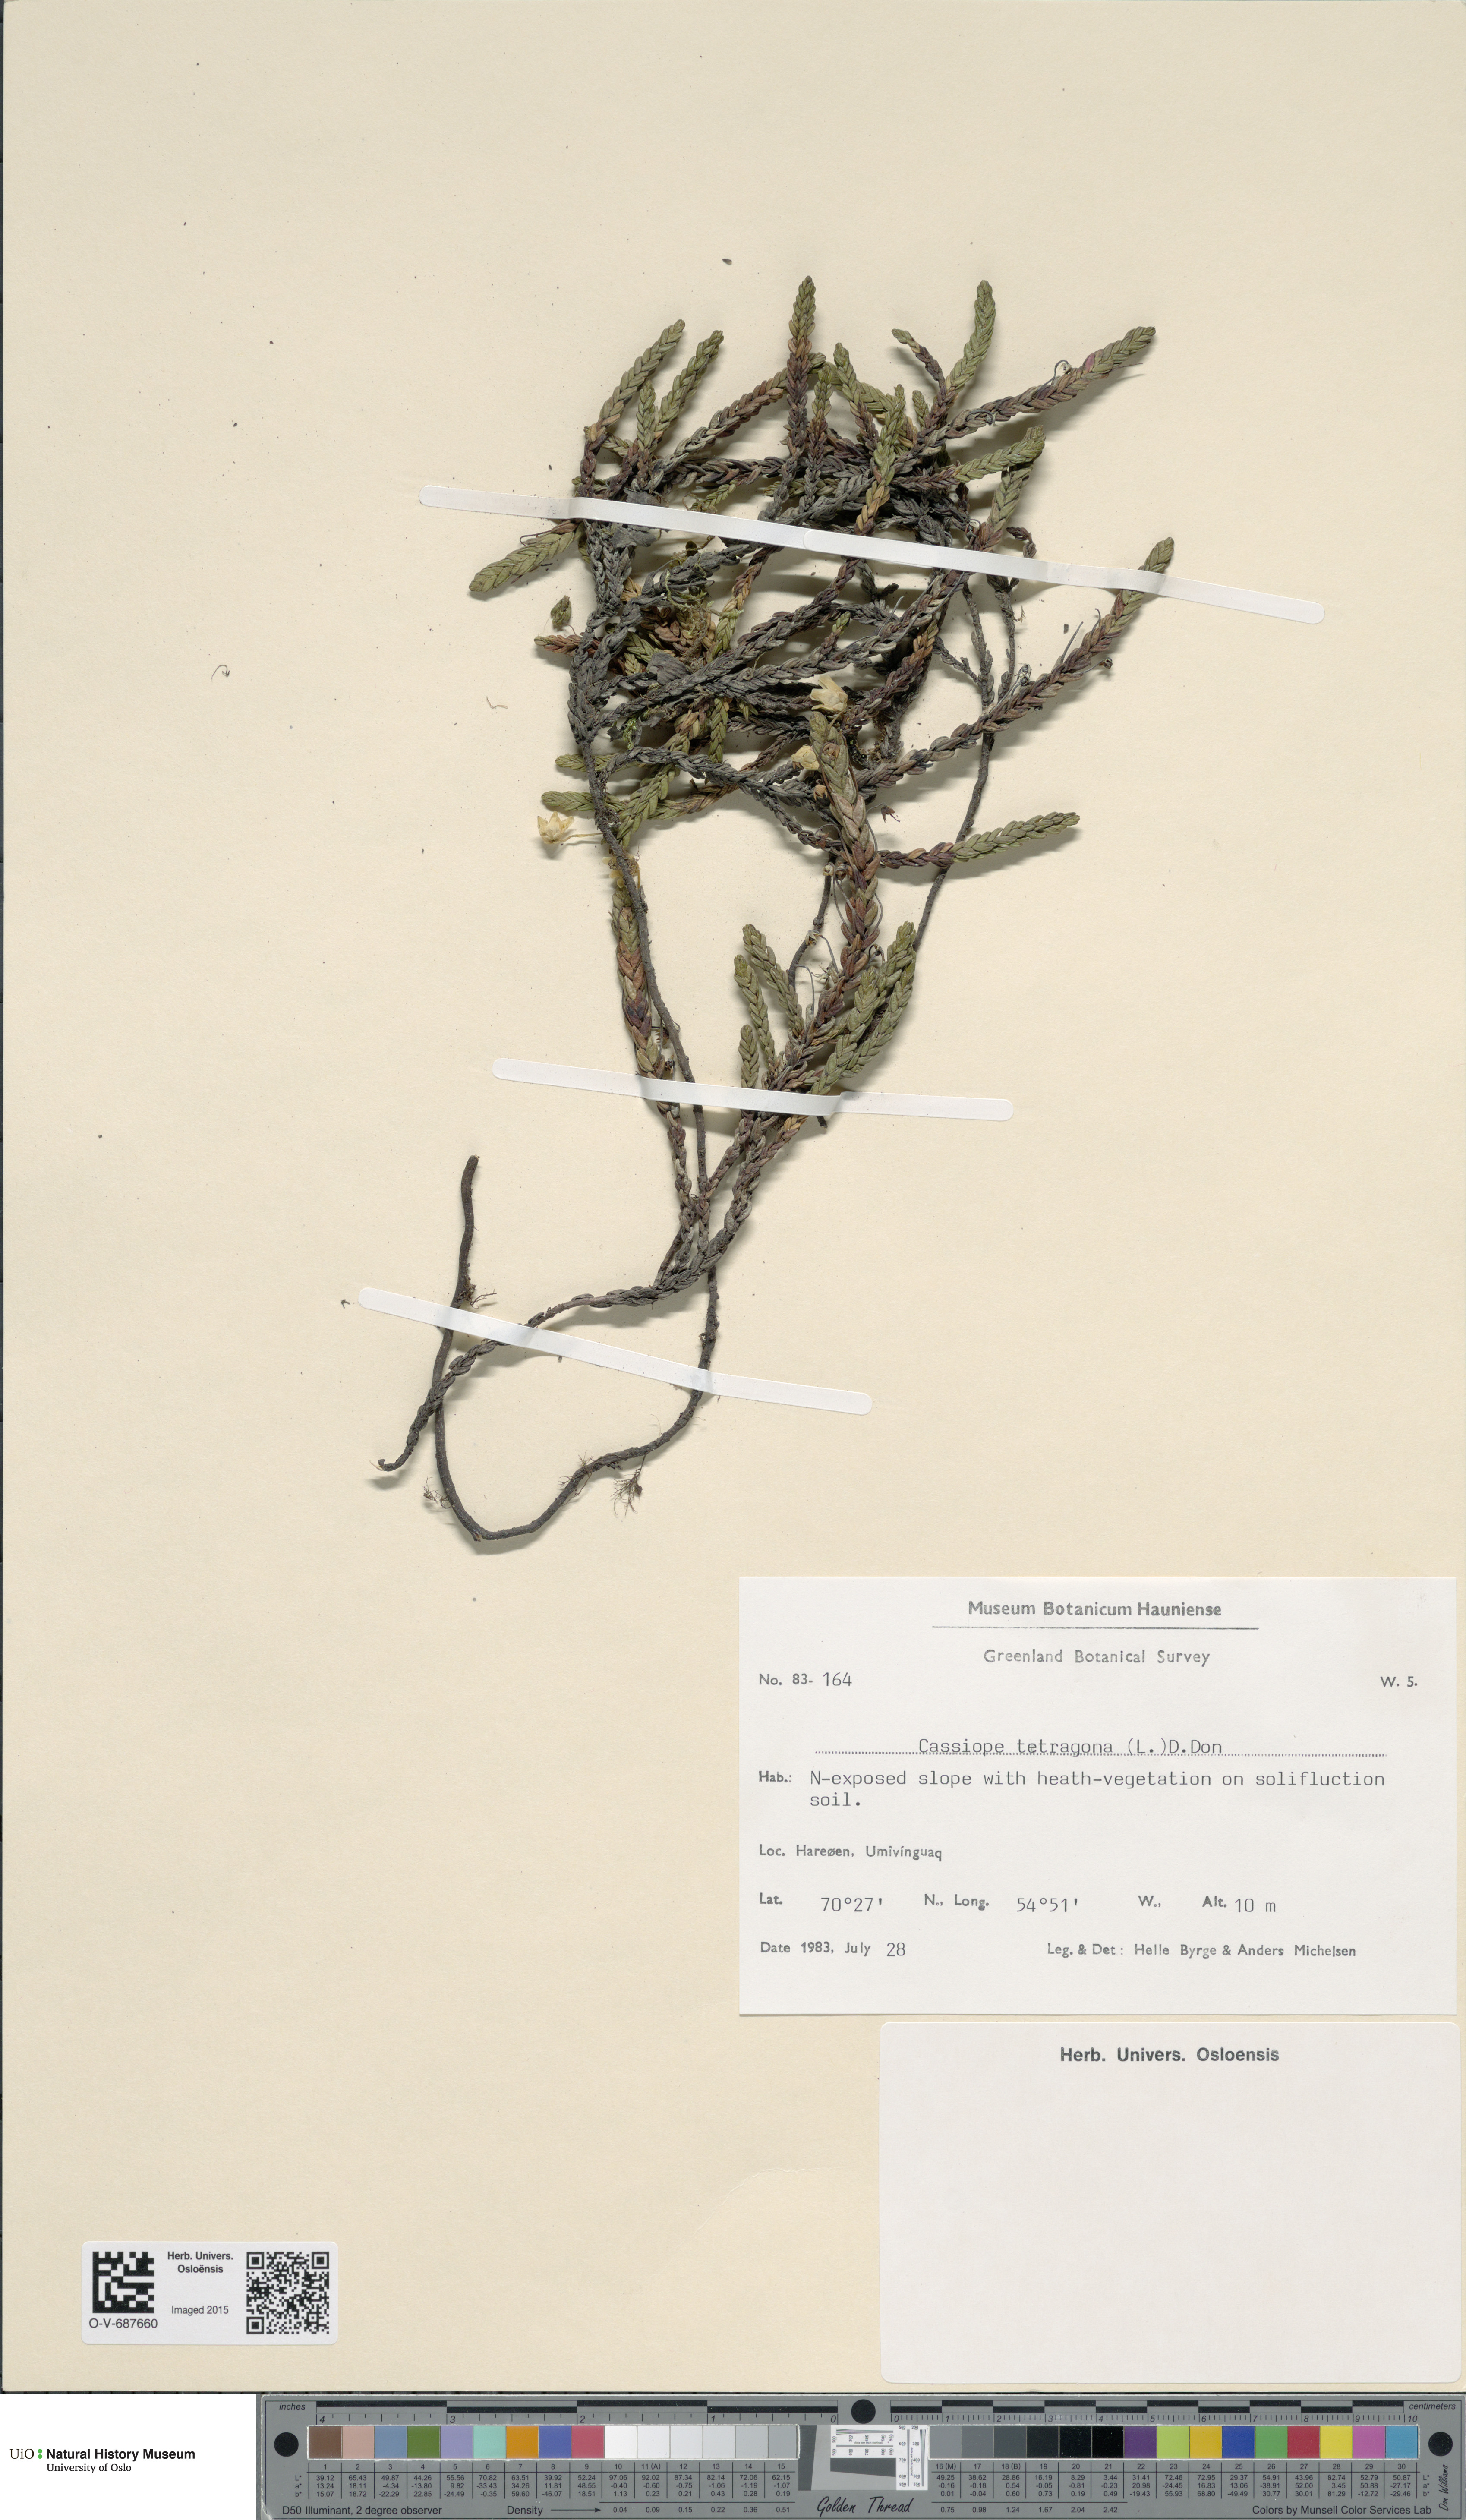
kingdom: Plantae
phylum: Tracheophyta
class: Magnoliopsida
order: Ericales
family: Ericaceae
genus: Cassiope
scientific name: Cassiope tetragona
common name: Arctic bell heather
